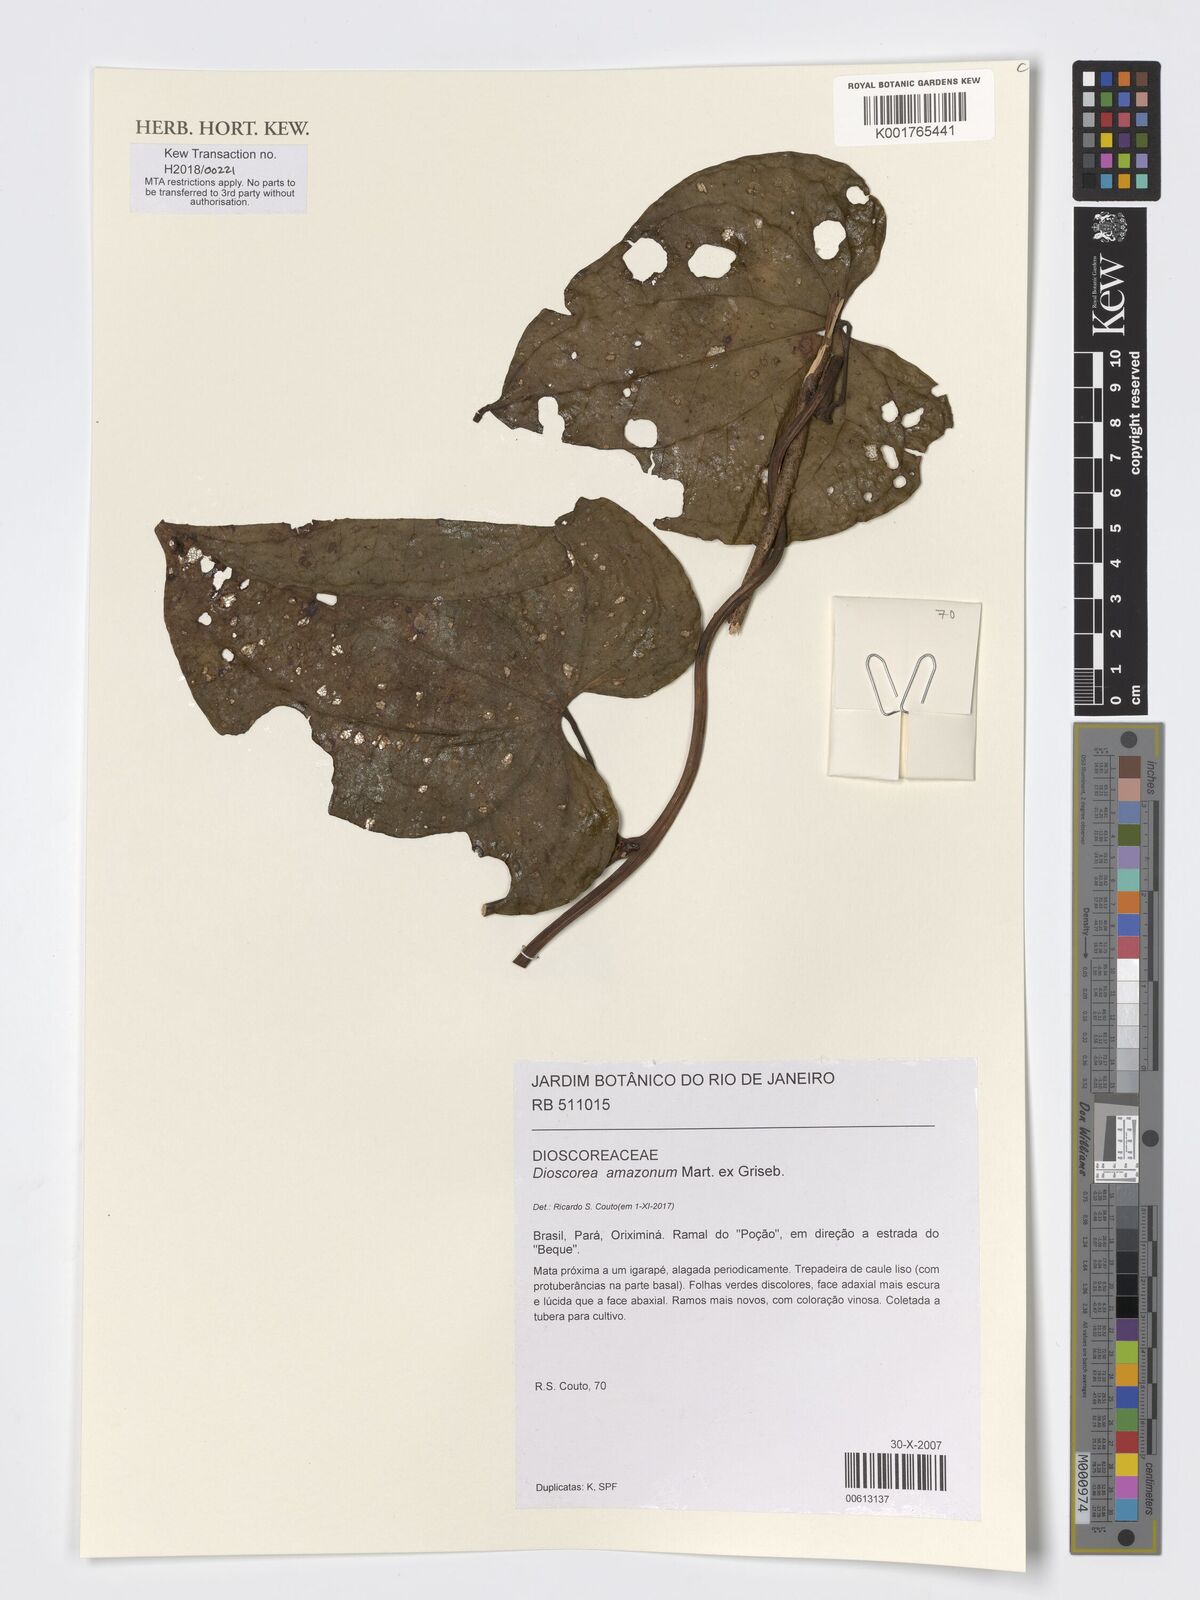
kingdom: Plantae
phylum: Tracheophyta
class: Liliopsida
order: Dioscoreales
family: Dioscoreaceae
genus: Dioscorea
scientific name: Dioscorea amazonum
